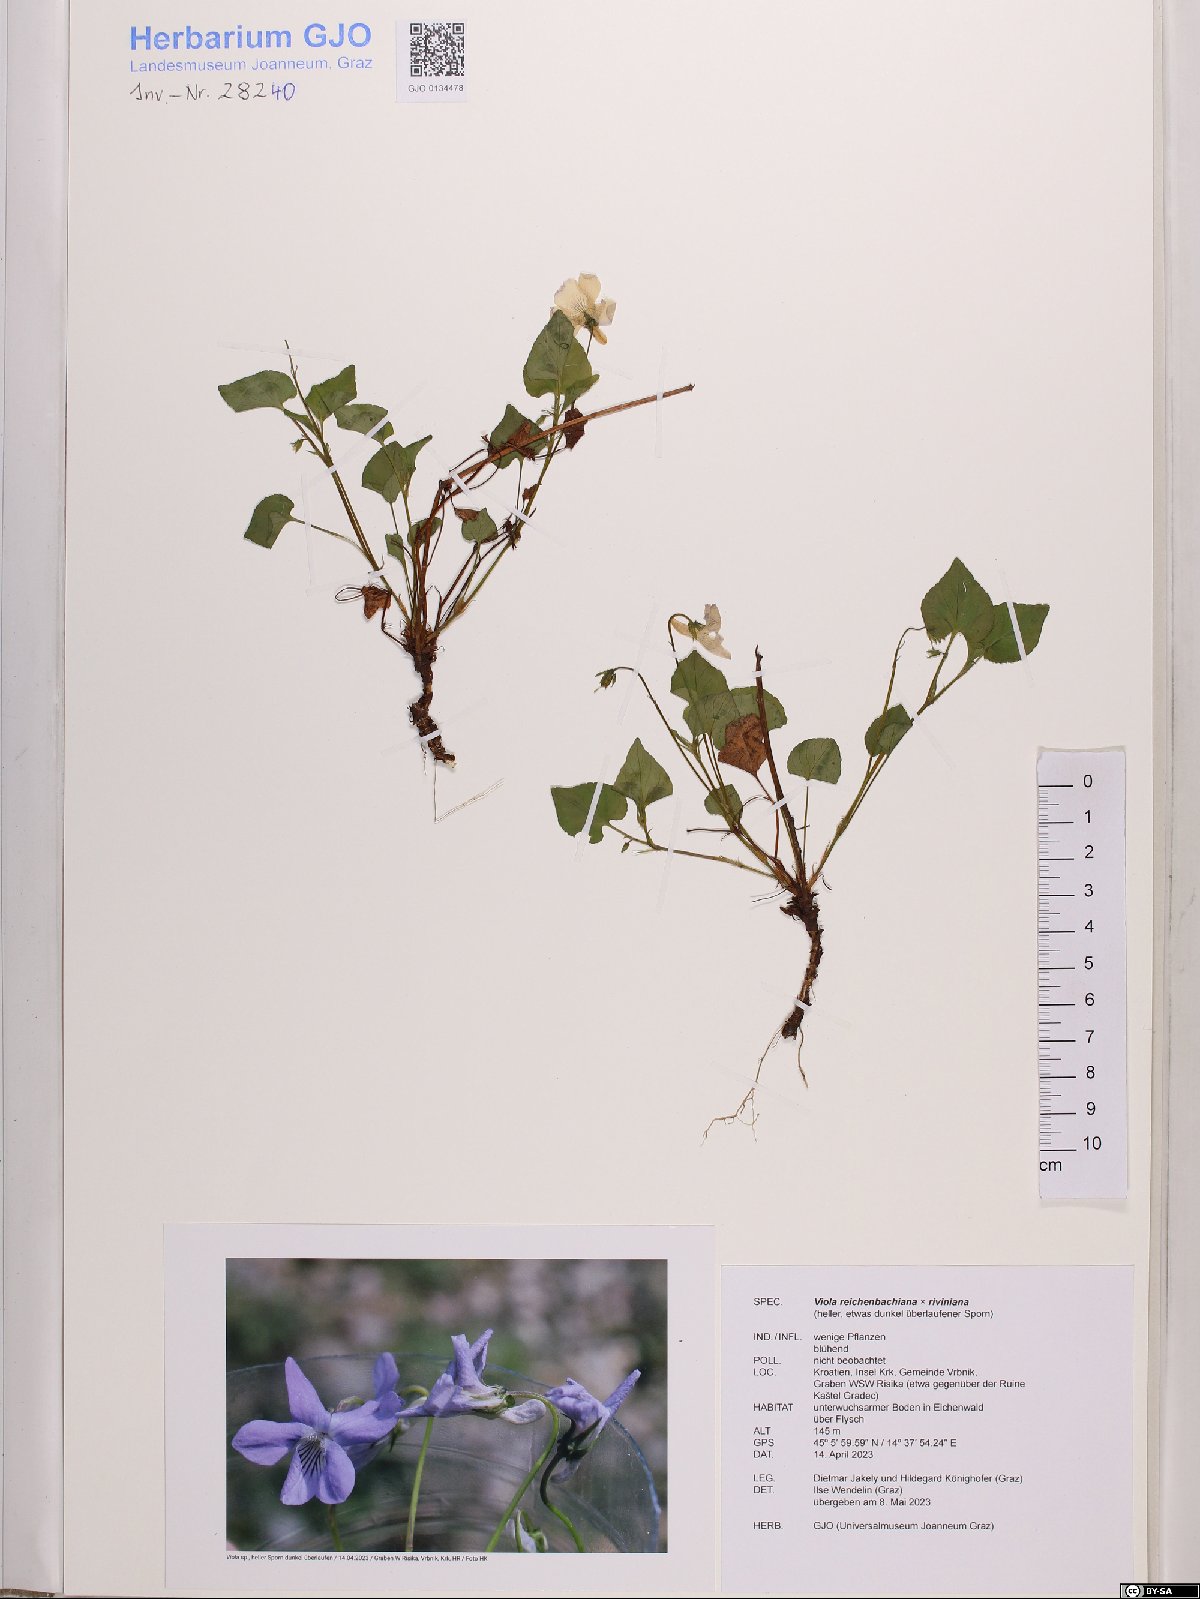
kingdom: Plantae
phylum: Tracheophyta
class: Magnoliopsida
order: Malpighiales
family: Violaceae
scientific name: Violaceae
